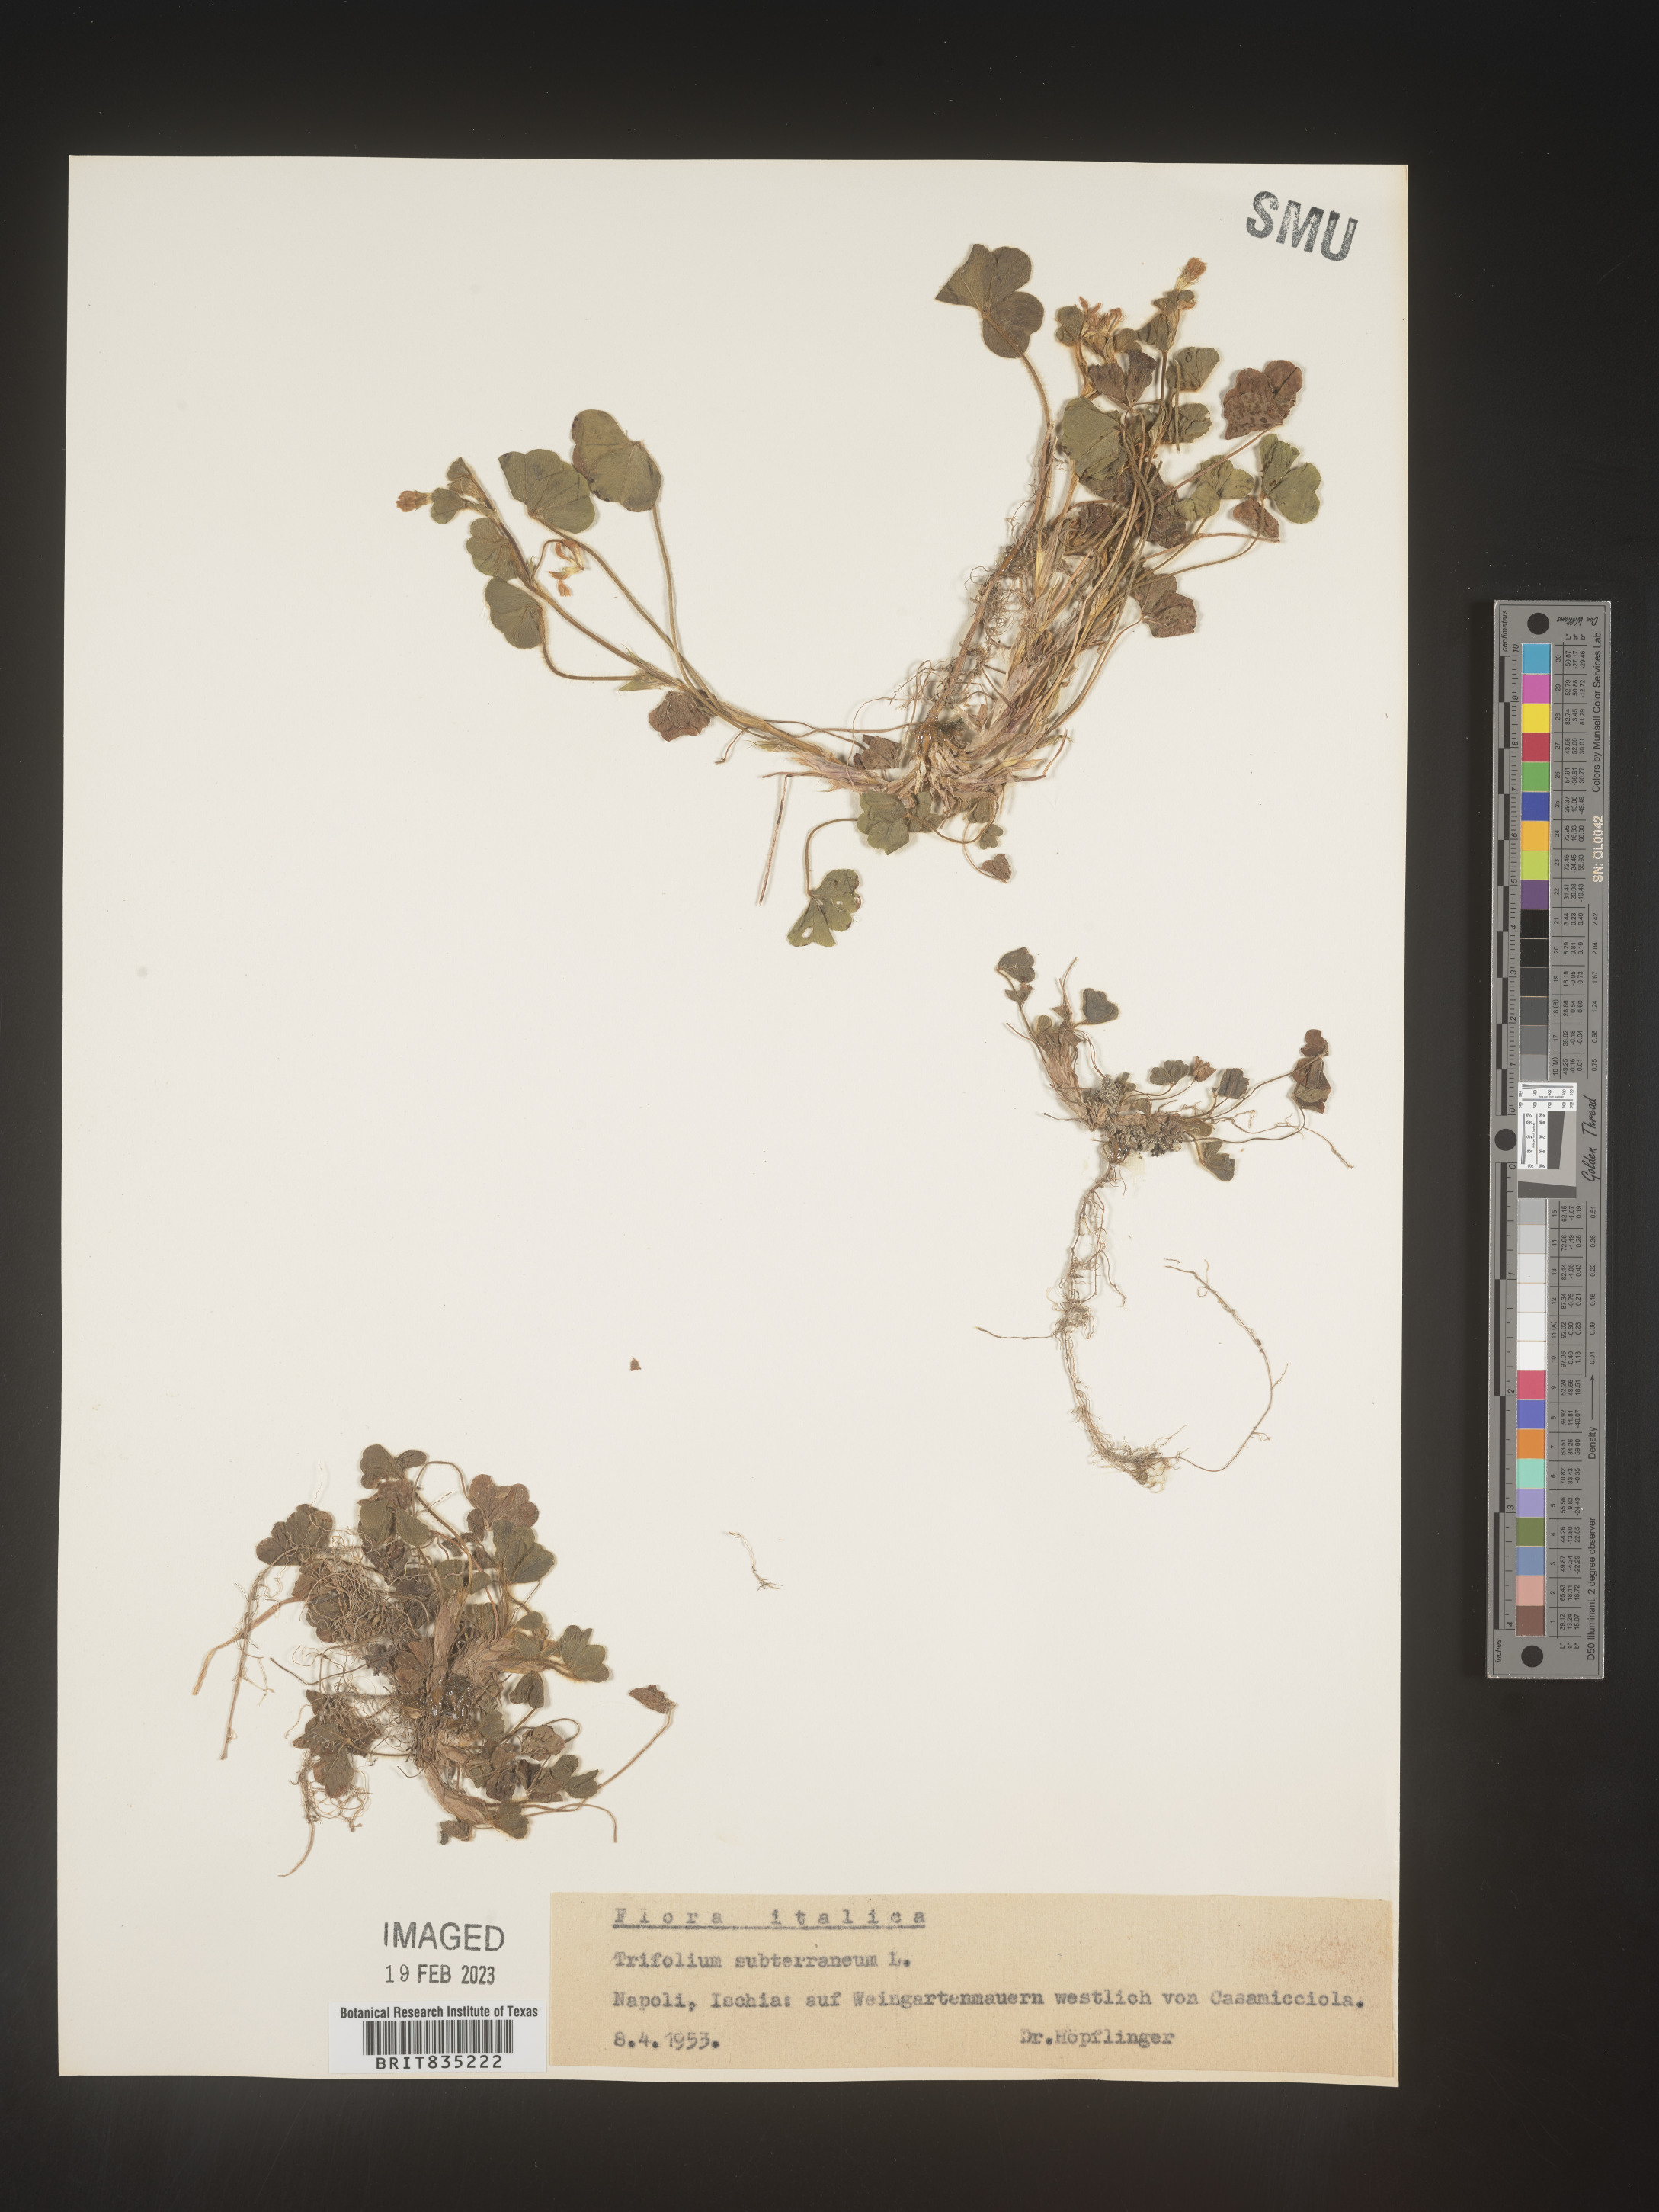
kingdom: Plantae
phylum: Tracheophyta
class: Magnoliopsida
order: Fabales
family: Fabaceae
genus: Trifolium
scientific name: Trifolium
